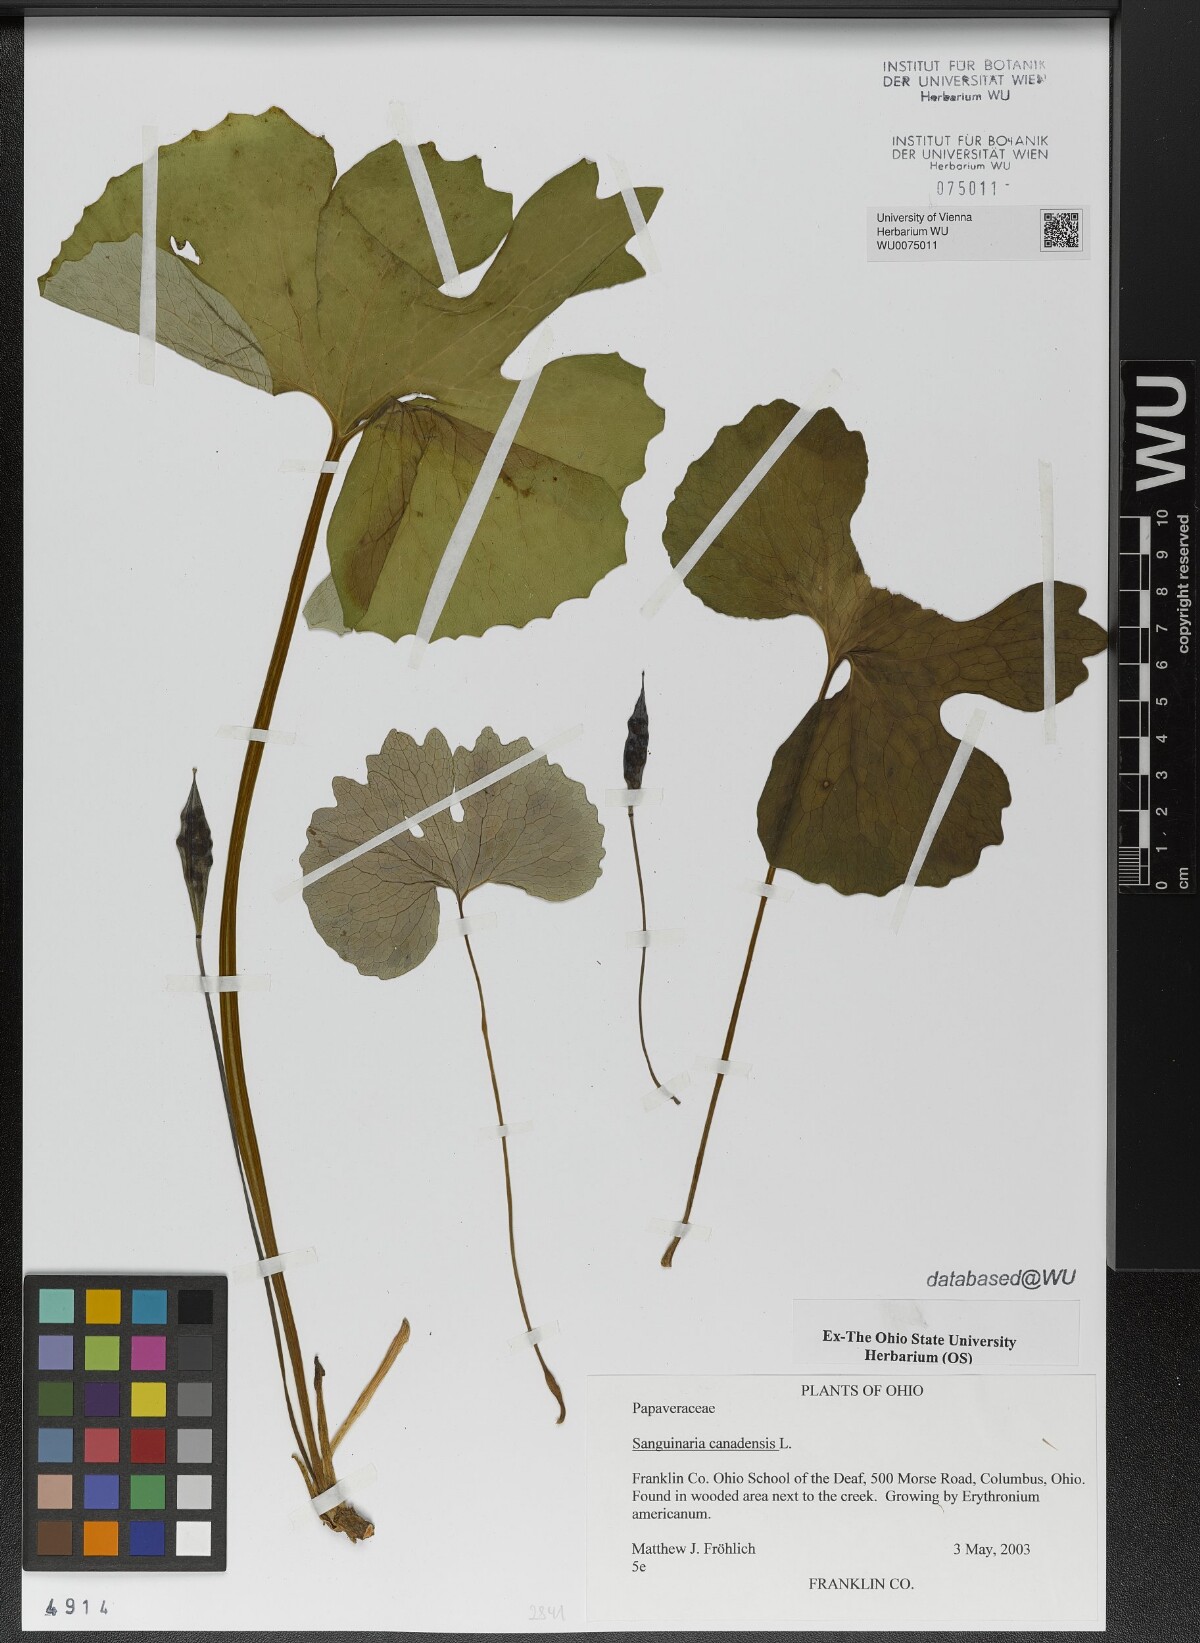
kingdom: Plantae
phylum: Tracheophyta
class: Magnoliopsida
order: Ranunculales
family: Papaveraceae
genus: Sanguinaria
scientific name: Sanguinaria canadensis
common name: Bloodroot
